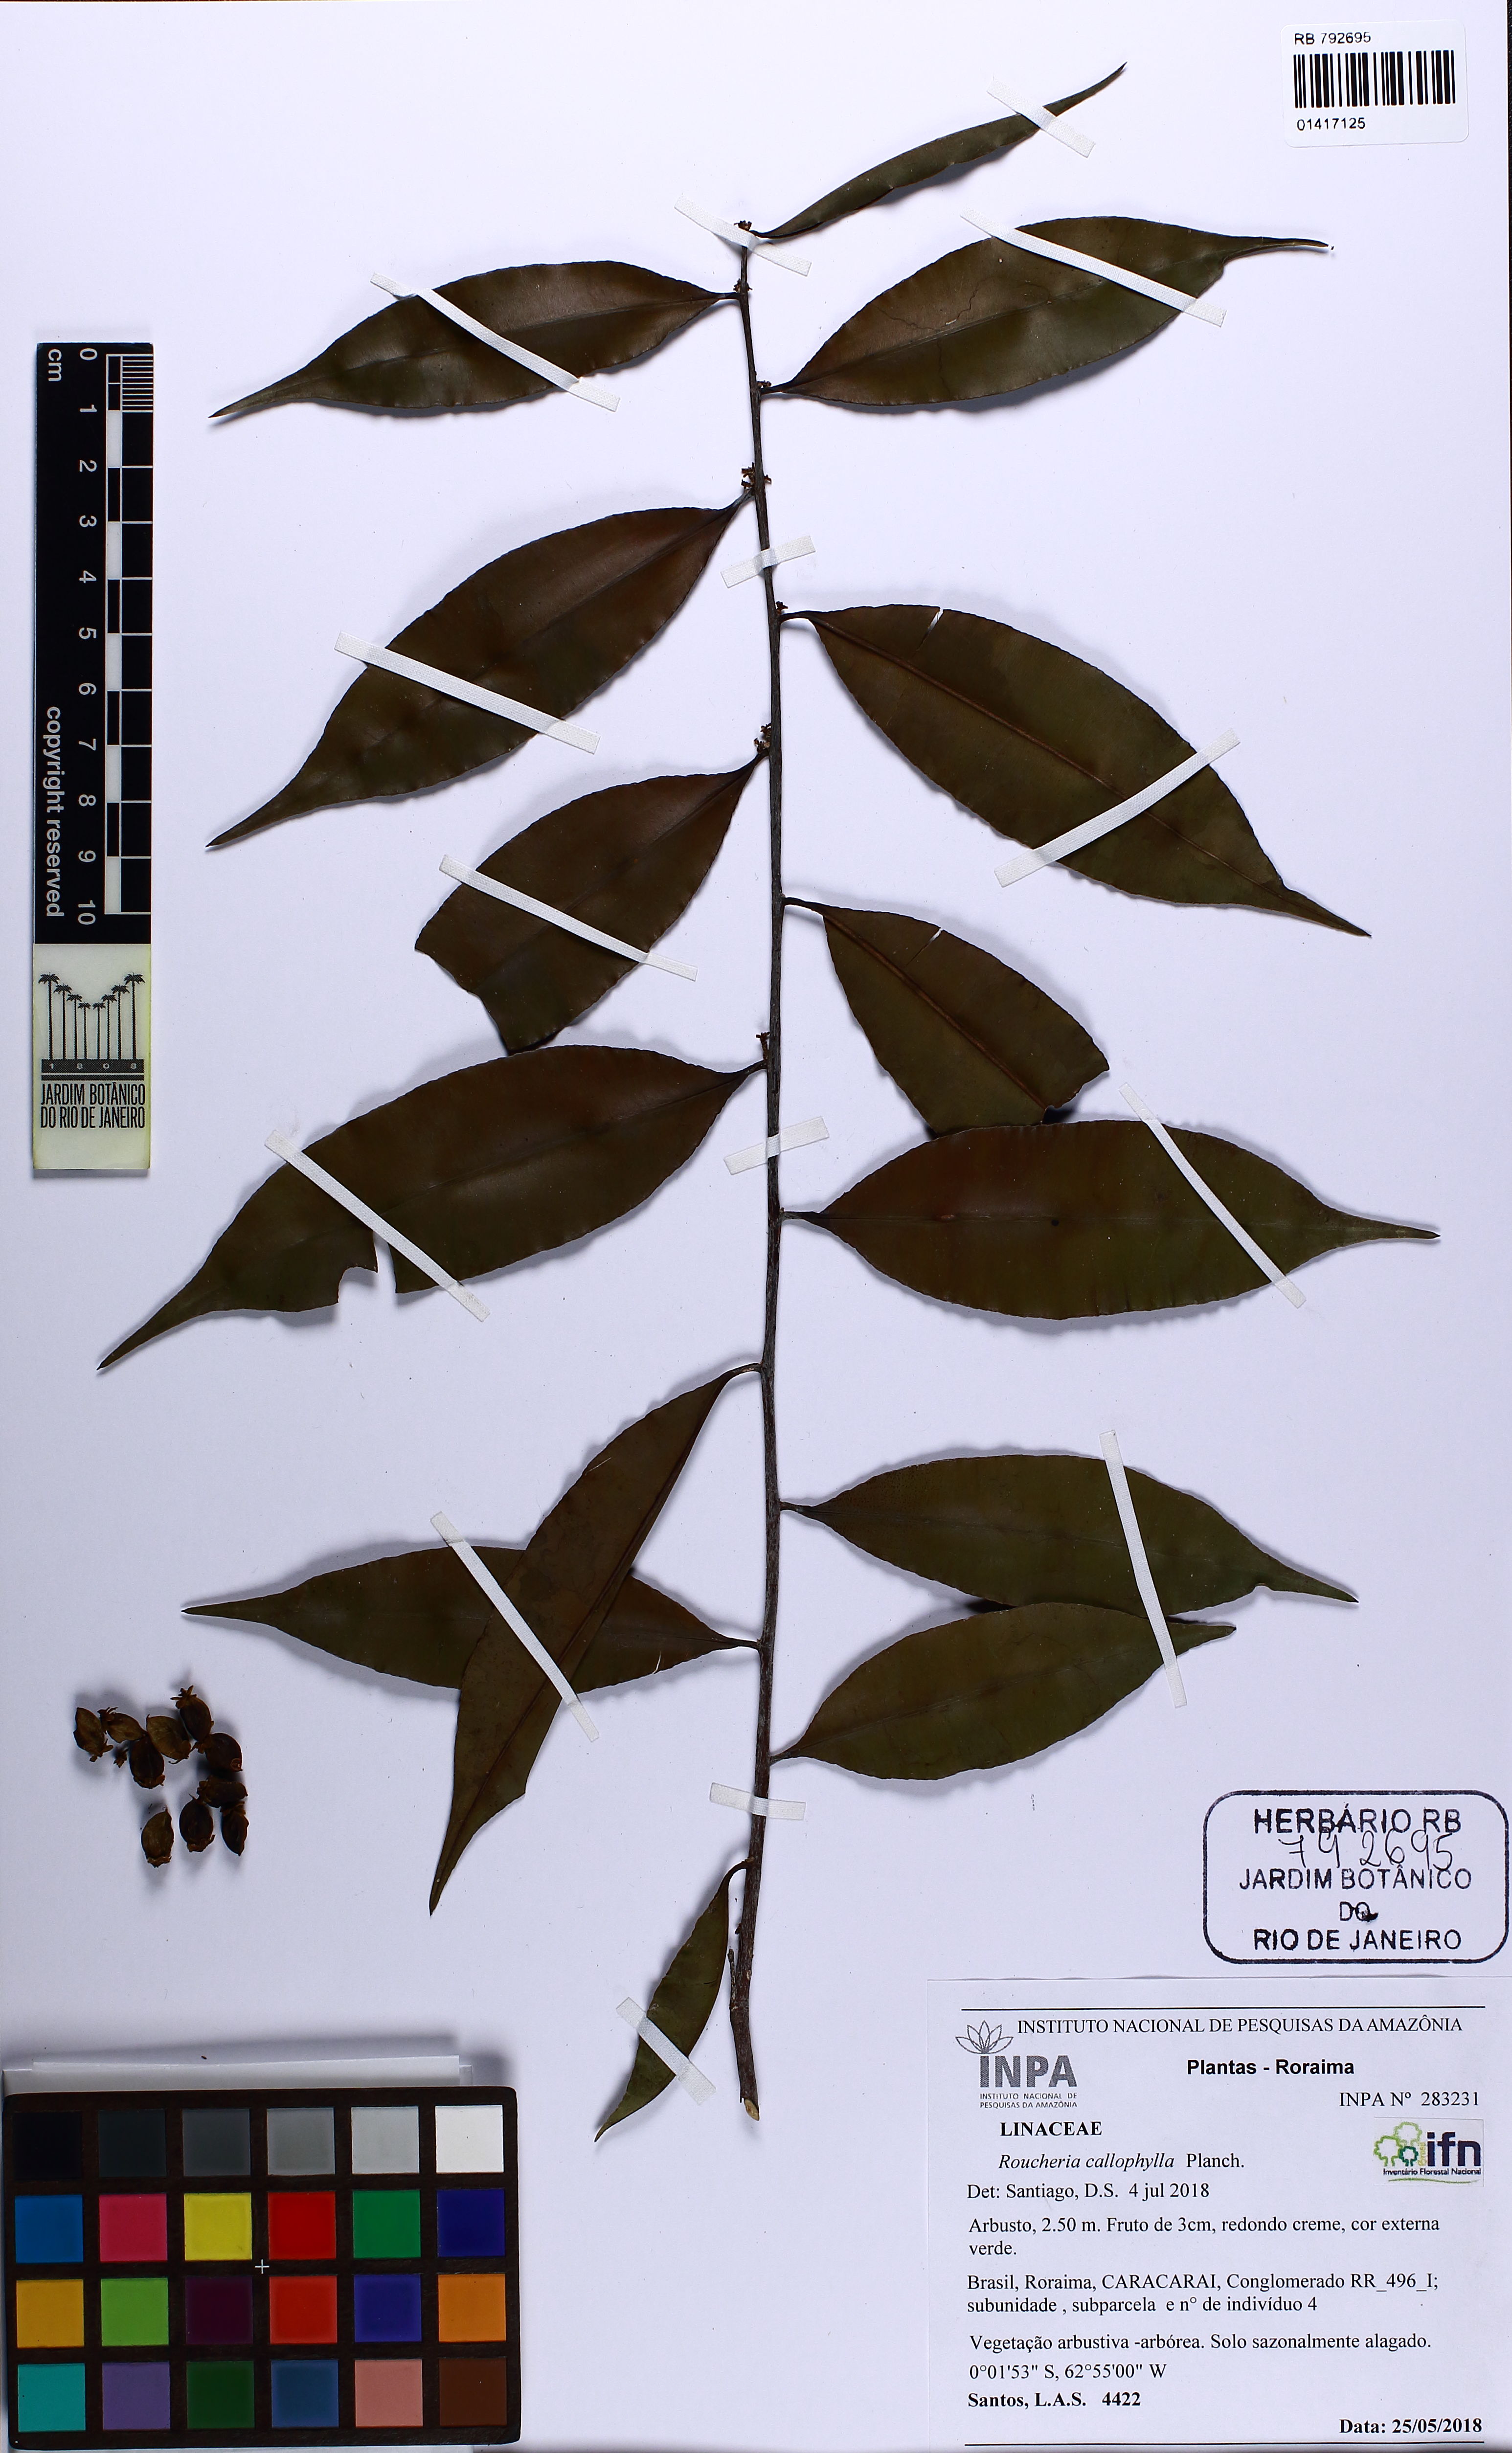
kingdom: Plantae
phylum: Tracheophyta
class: Magnoliopsida
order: Malpighiales
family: Linaceae
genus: Roucheria
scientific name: Roucheria calophylla
